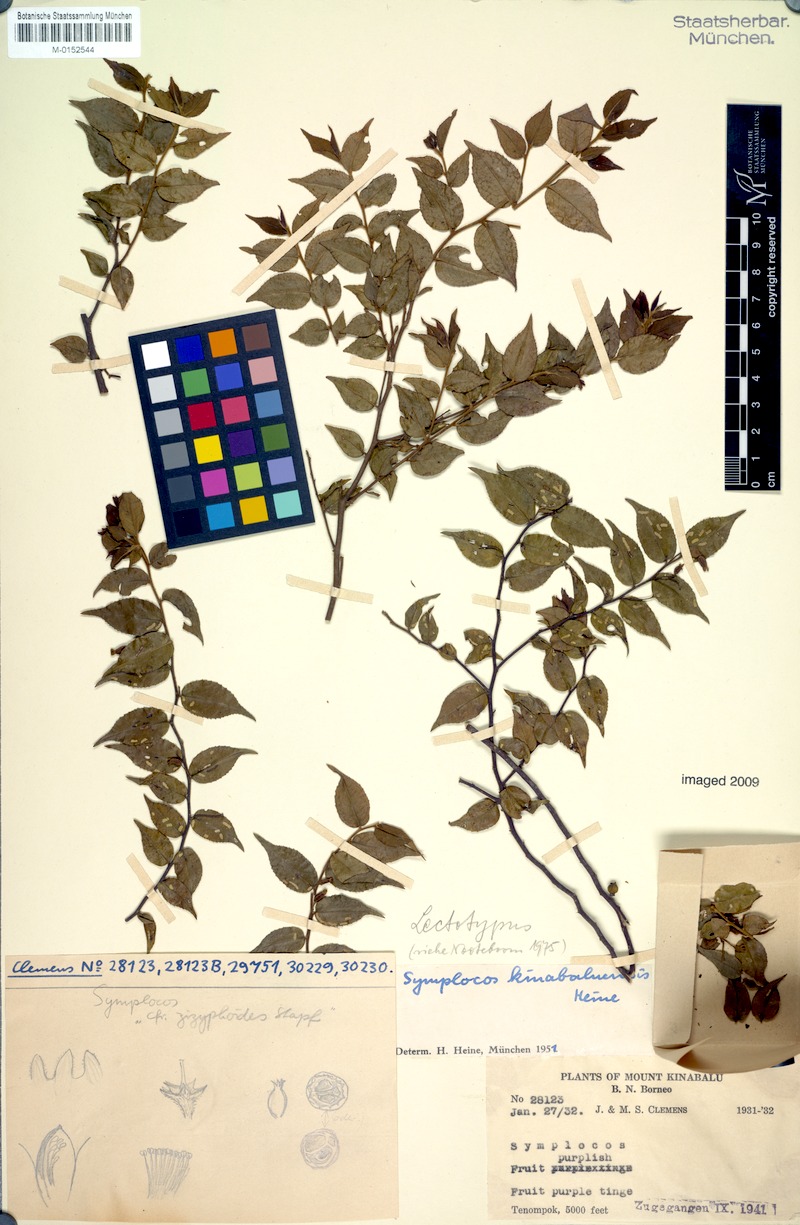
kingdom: Plantae
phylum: Tracheophyta
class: Magnoliopsida
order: Ericales
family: Symplocaceae
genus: Symplocos
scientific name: Symplocos laeteviridis
